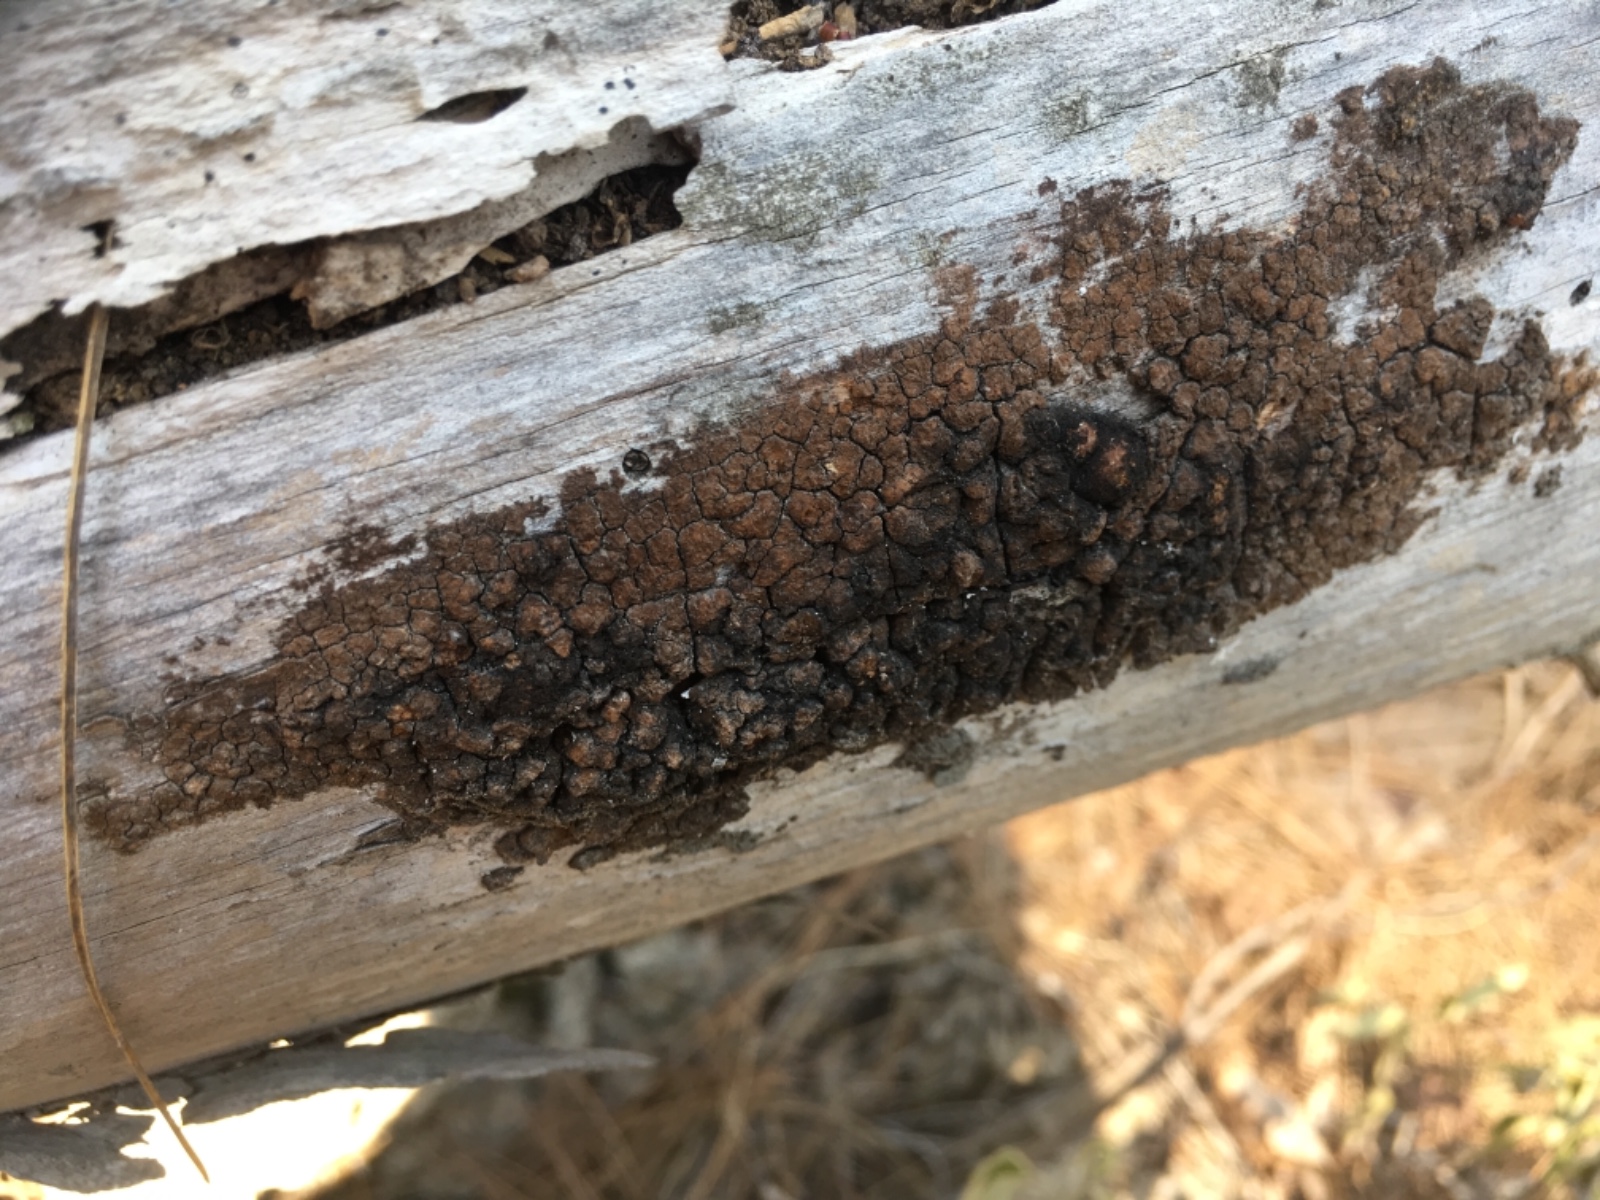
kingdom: Fungi
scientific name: Fungi
